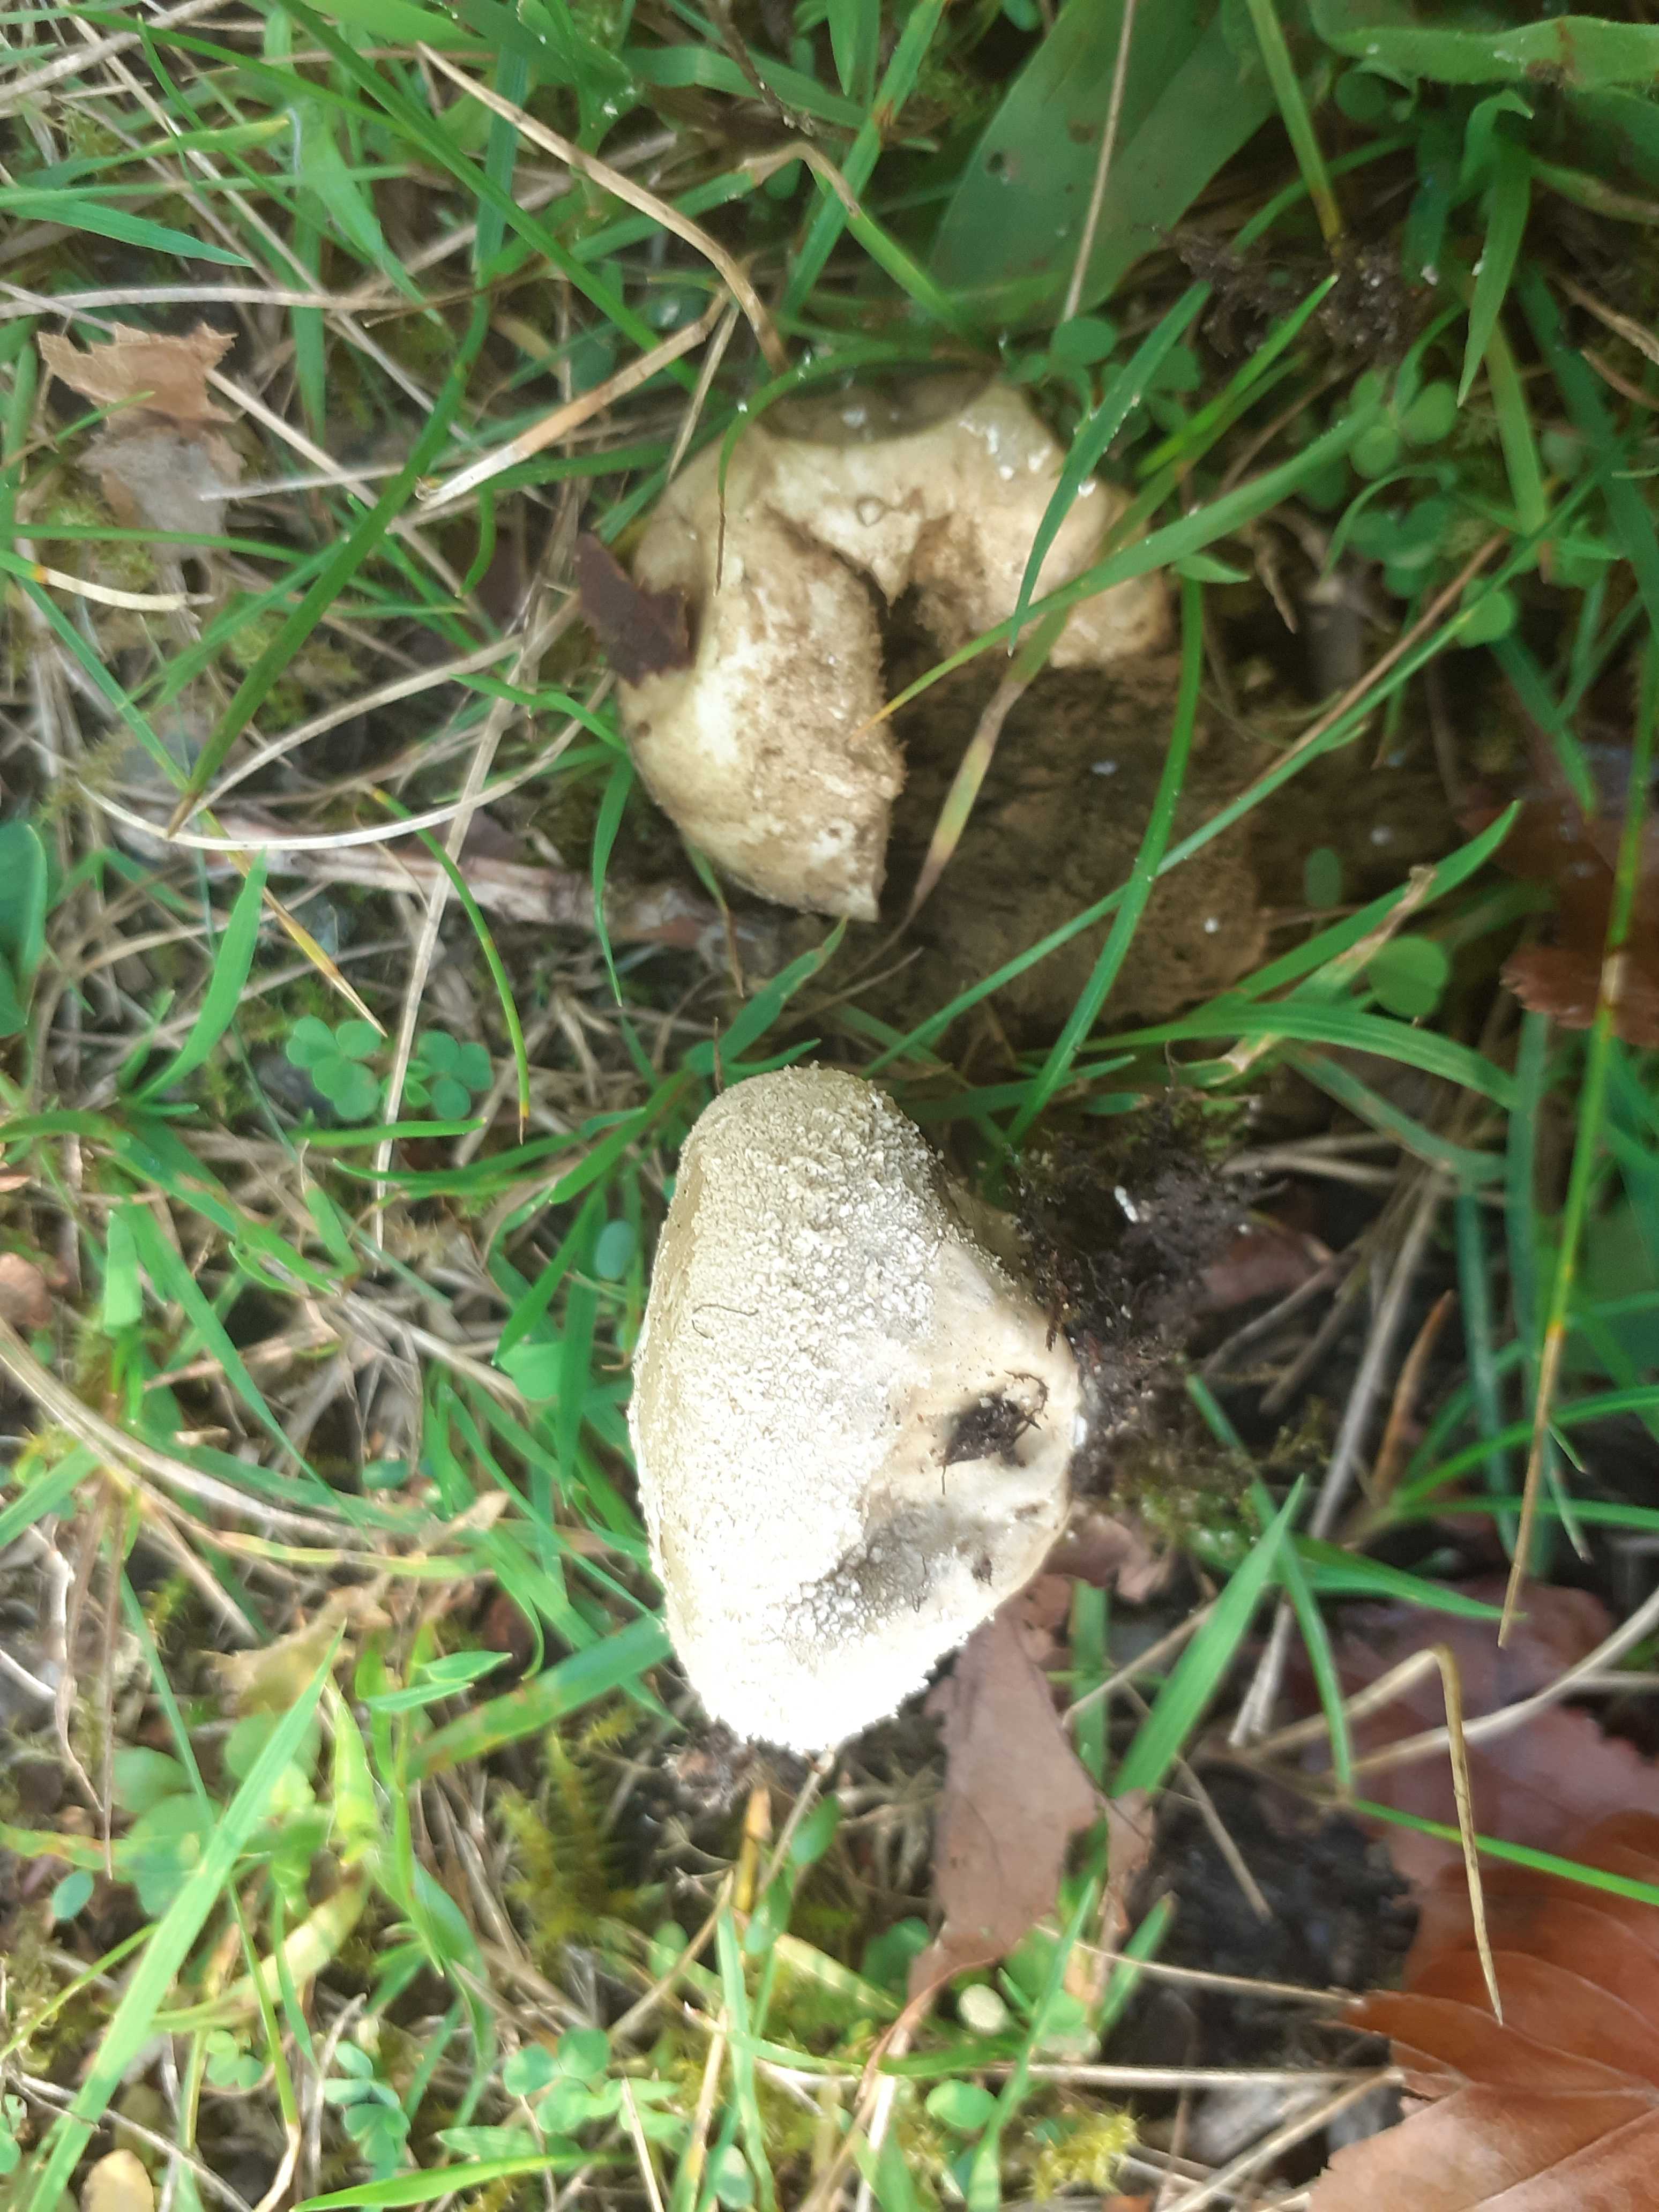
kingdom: Fungi
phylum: Basidiomycota
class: Agaricomycetes
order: Agaricales
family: Lycoperdaceae
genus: Lycoperdon
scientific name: Lycoperdon pratense
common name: flad støvbold
